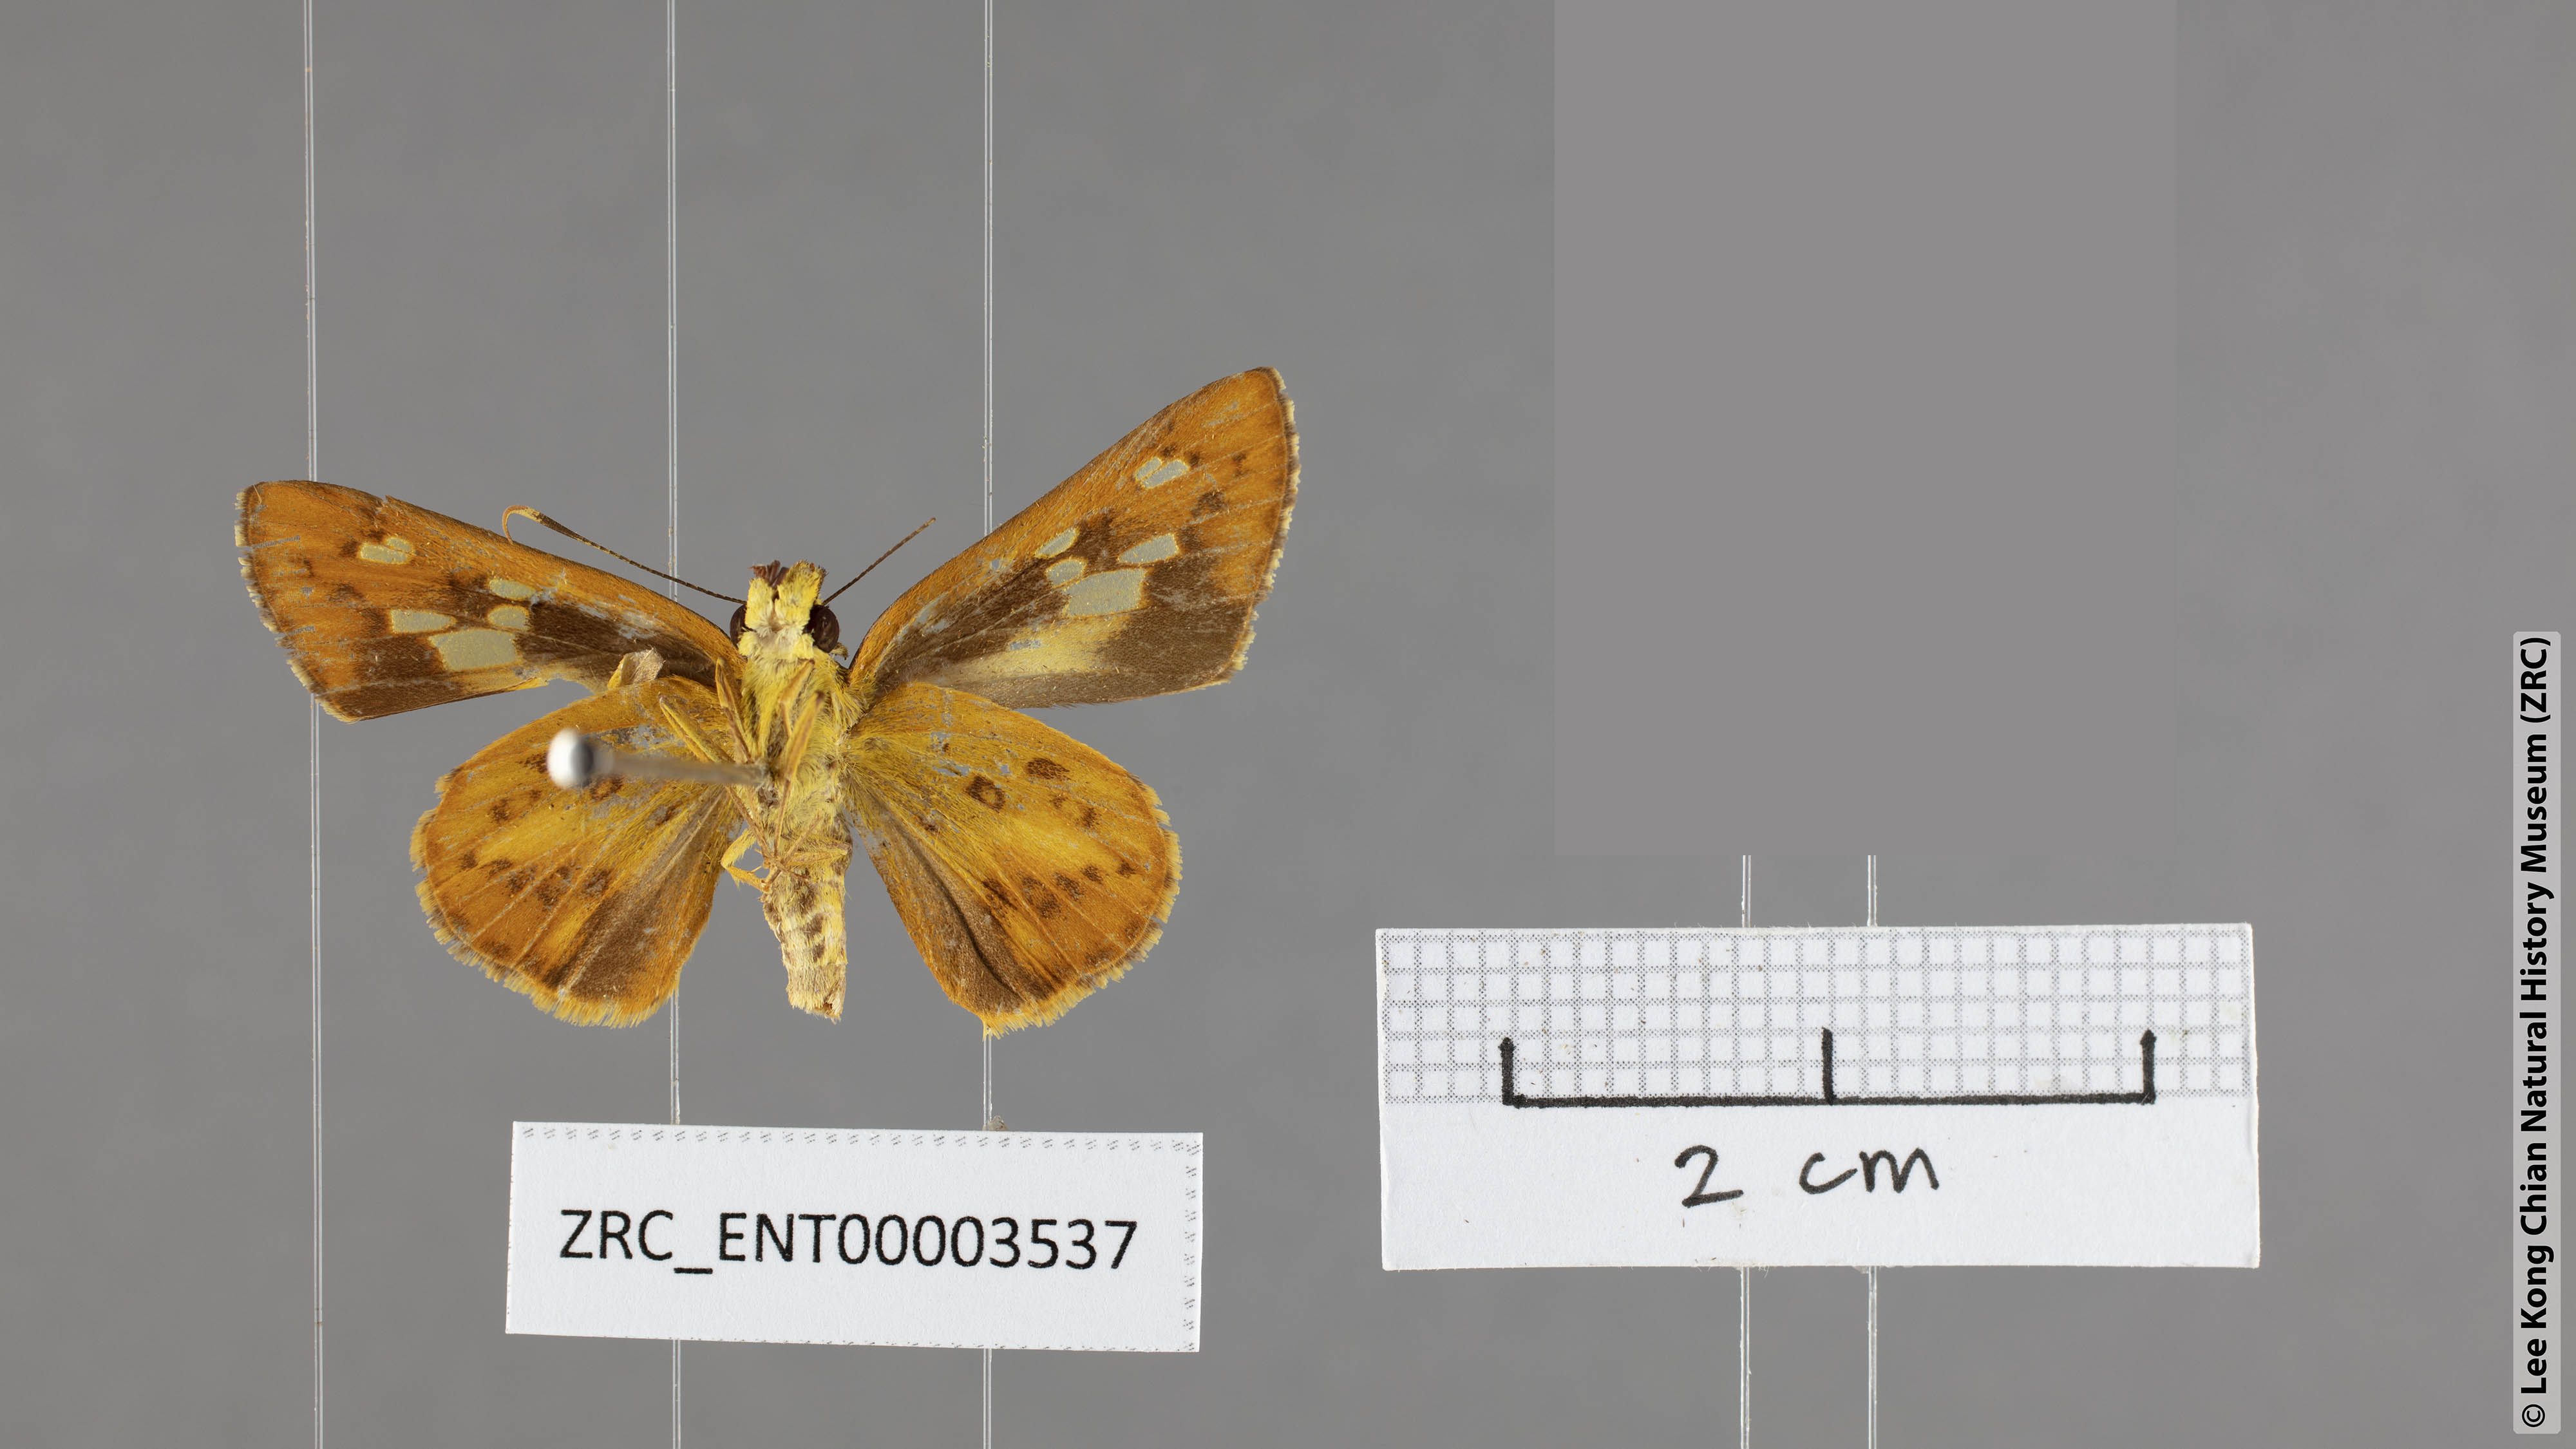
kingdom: Animalia
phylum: Arthropoda
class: Insecta
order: Lepidoptera
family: Hesperiidae
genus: Salanoemia
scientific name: Salanoemia tavoyana
